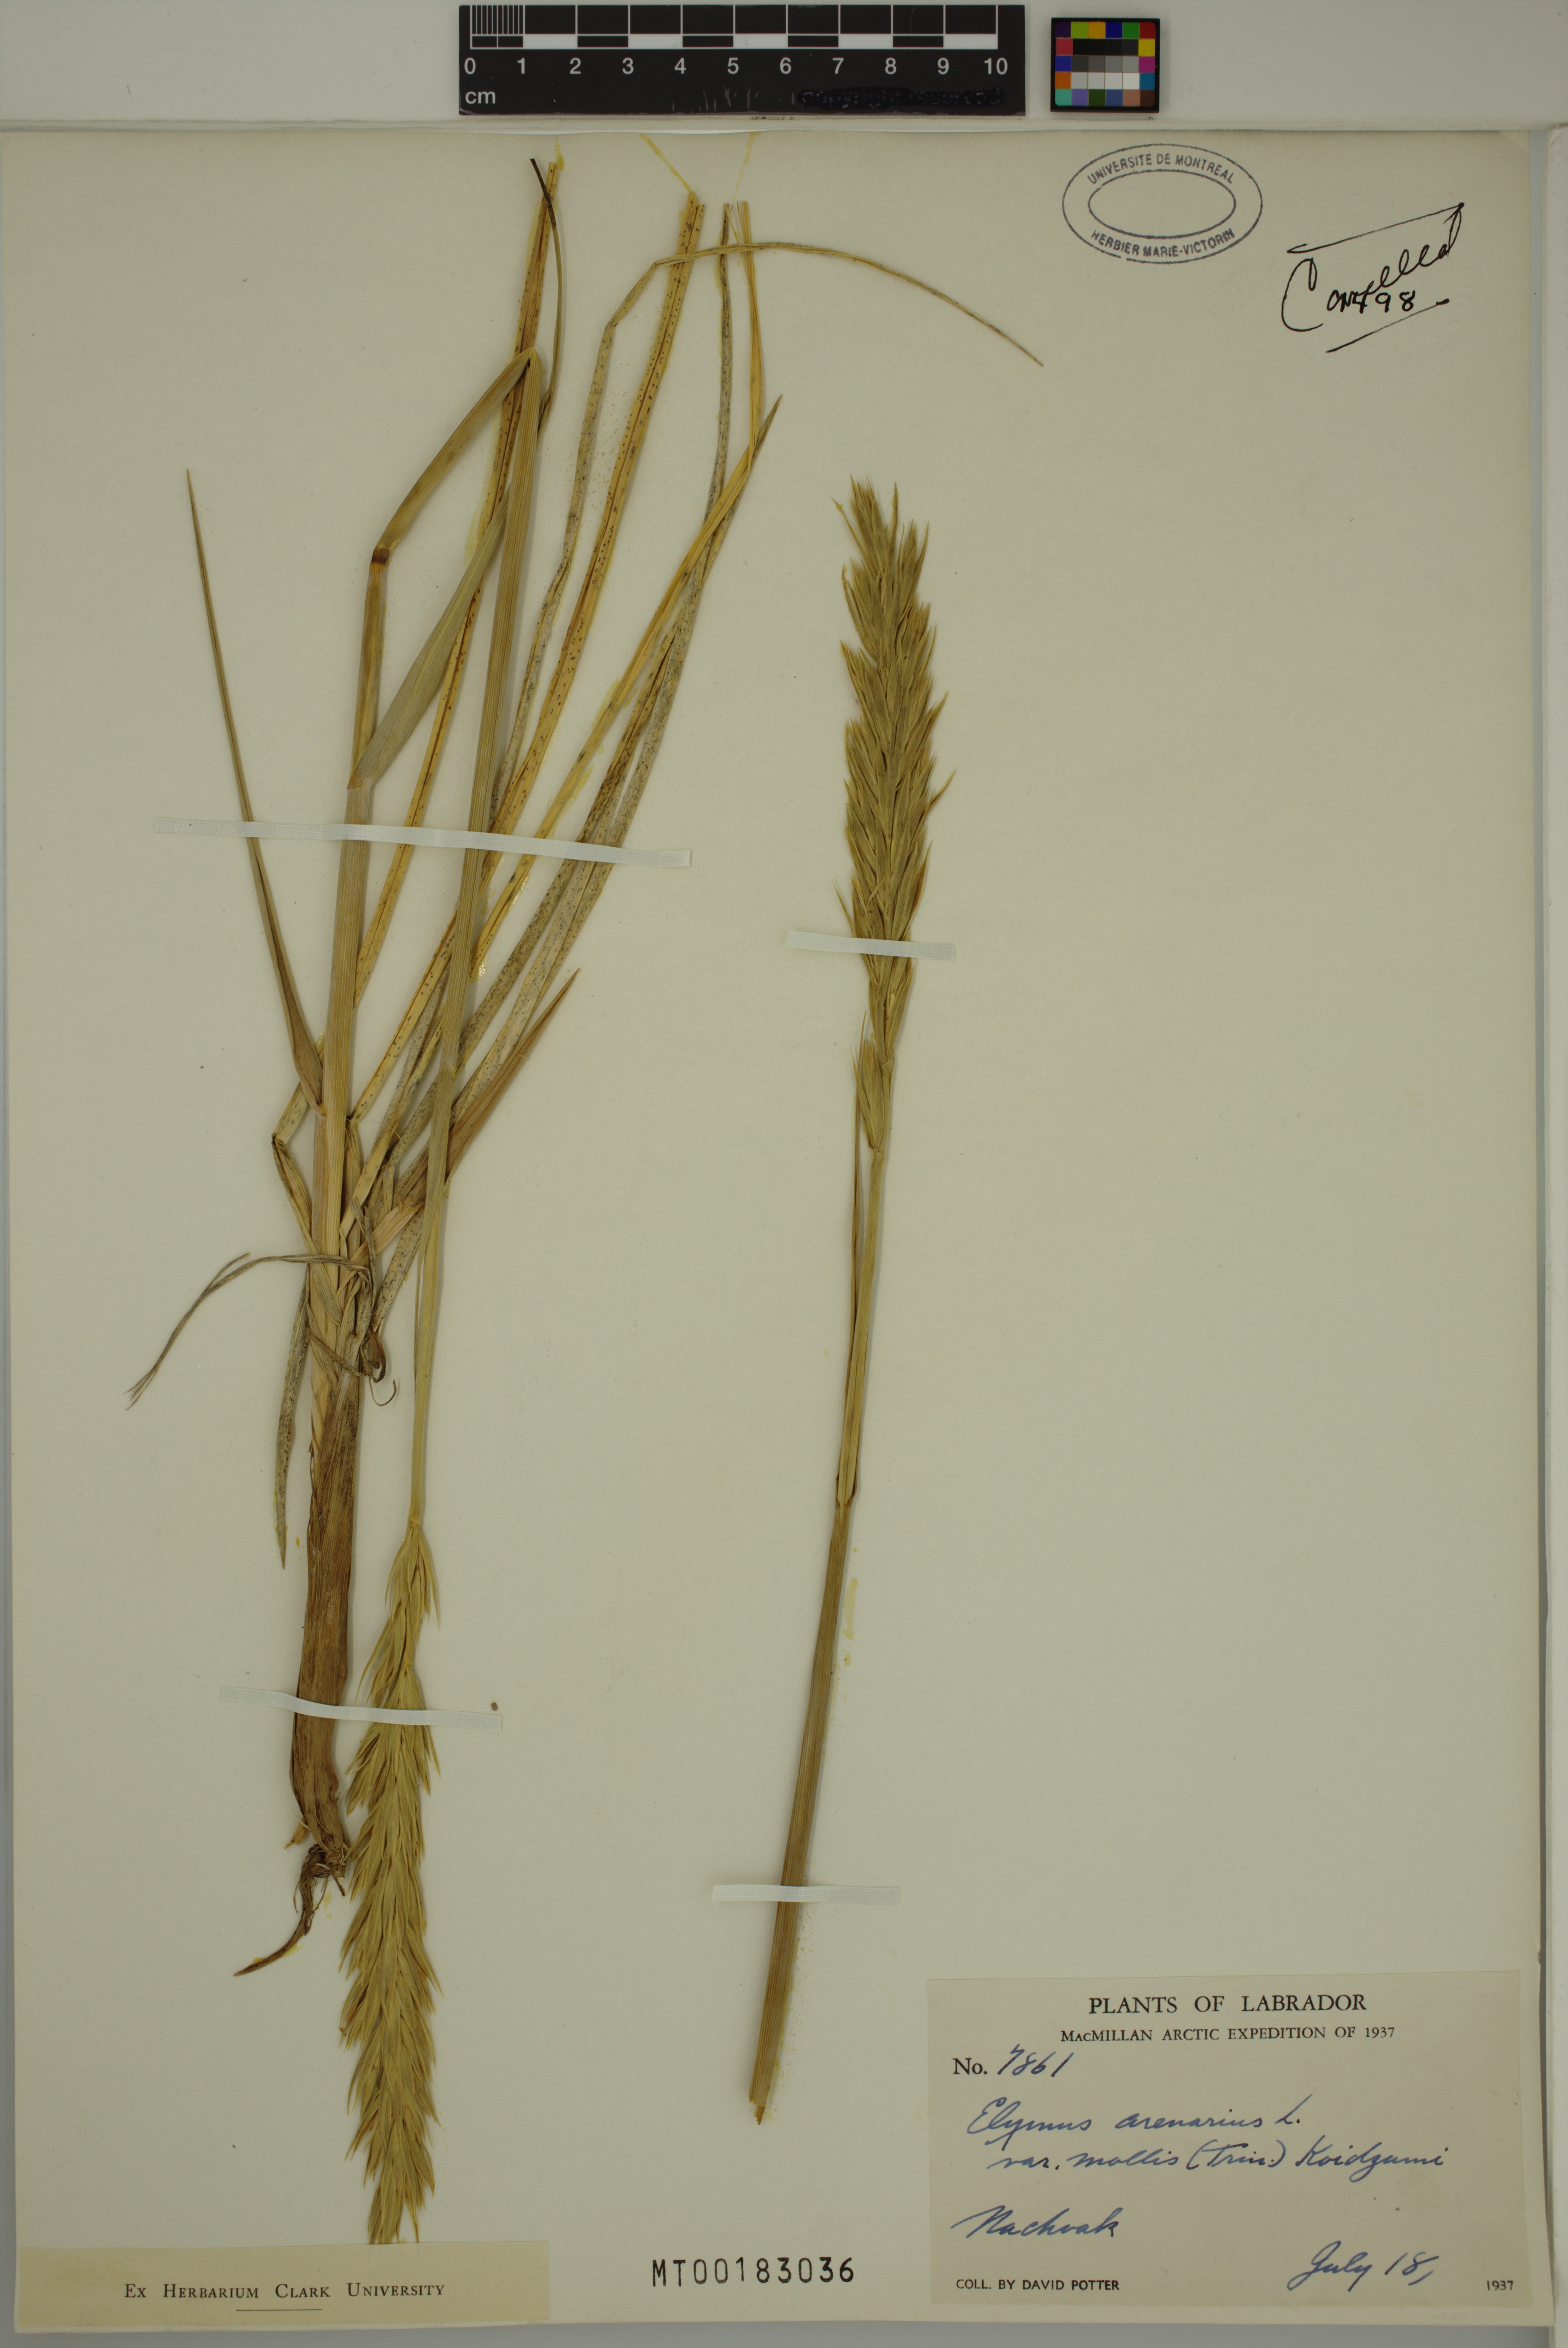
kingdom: Plantae
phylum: Tracheophyta
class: Liliopsida
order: Poales
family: Poaceae
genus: Leymus
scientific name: Leymus mollis
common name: American dune grass
